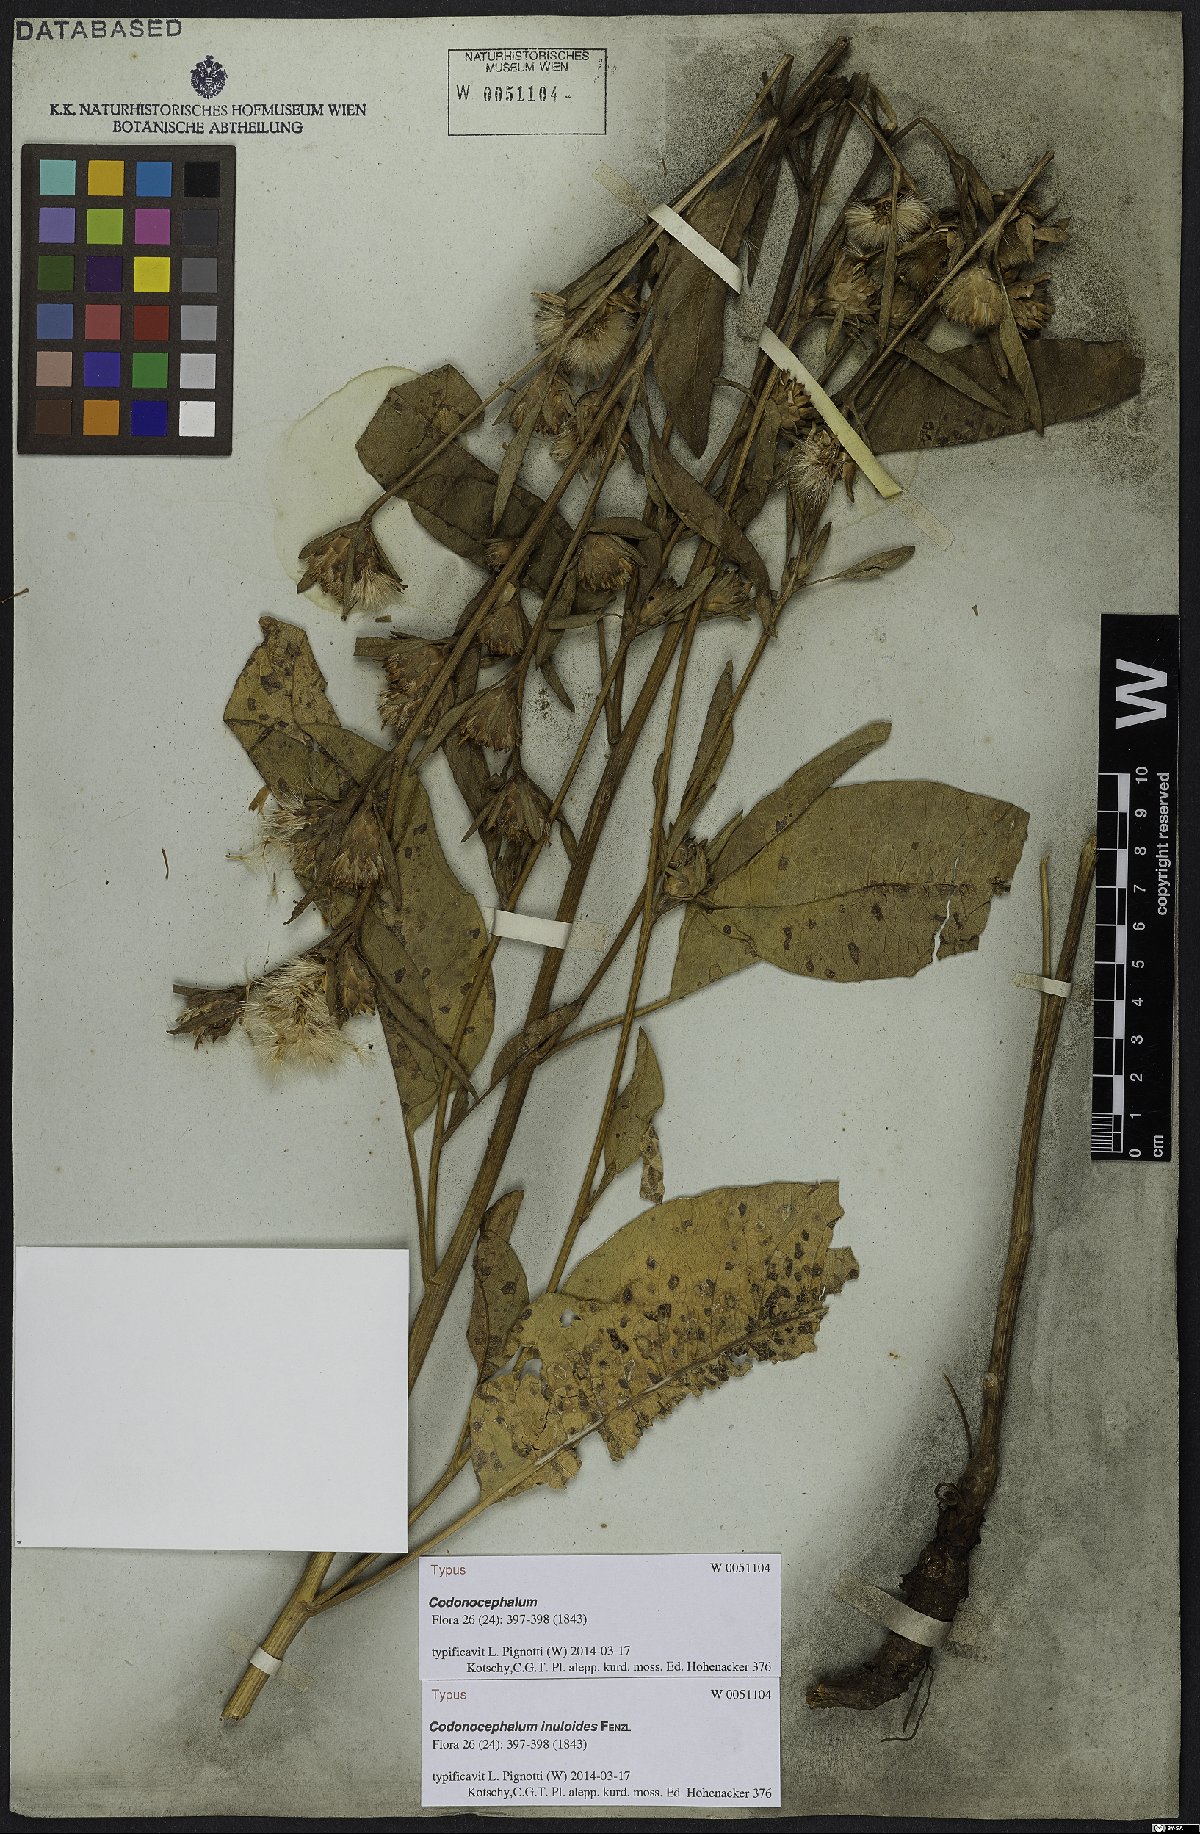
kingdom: Plantae
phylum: Tracheophyta
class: Magnoliopsida
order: Asterales
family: Asteraceae
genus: Inula
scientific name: Inula inuloides
